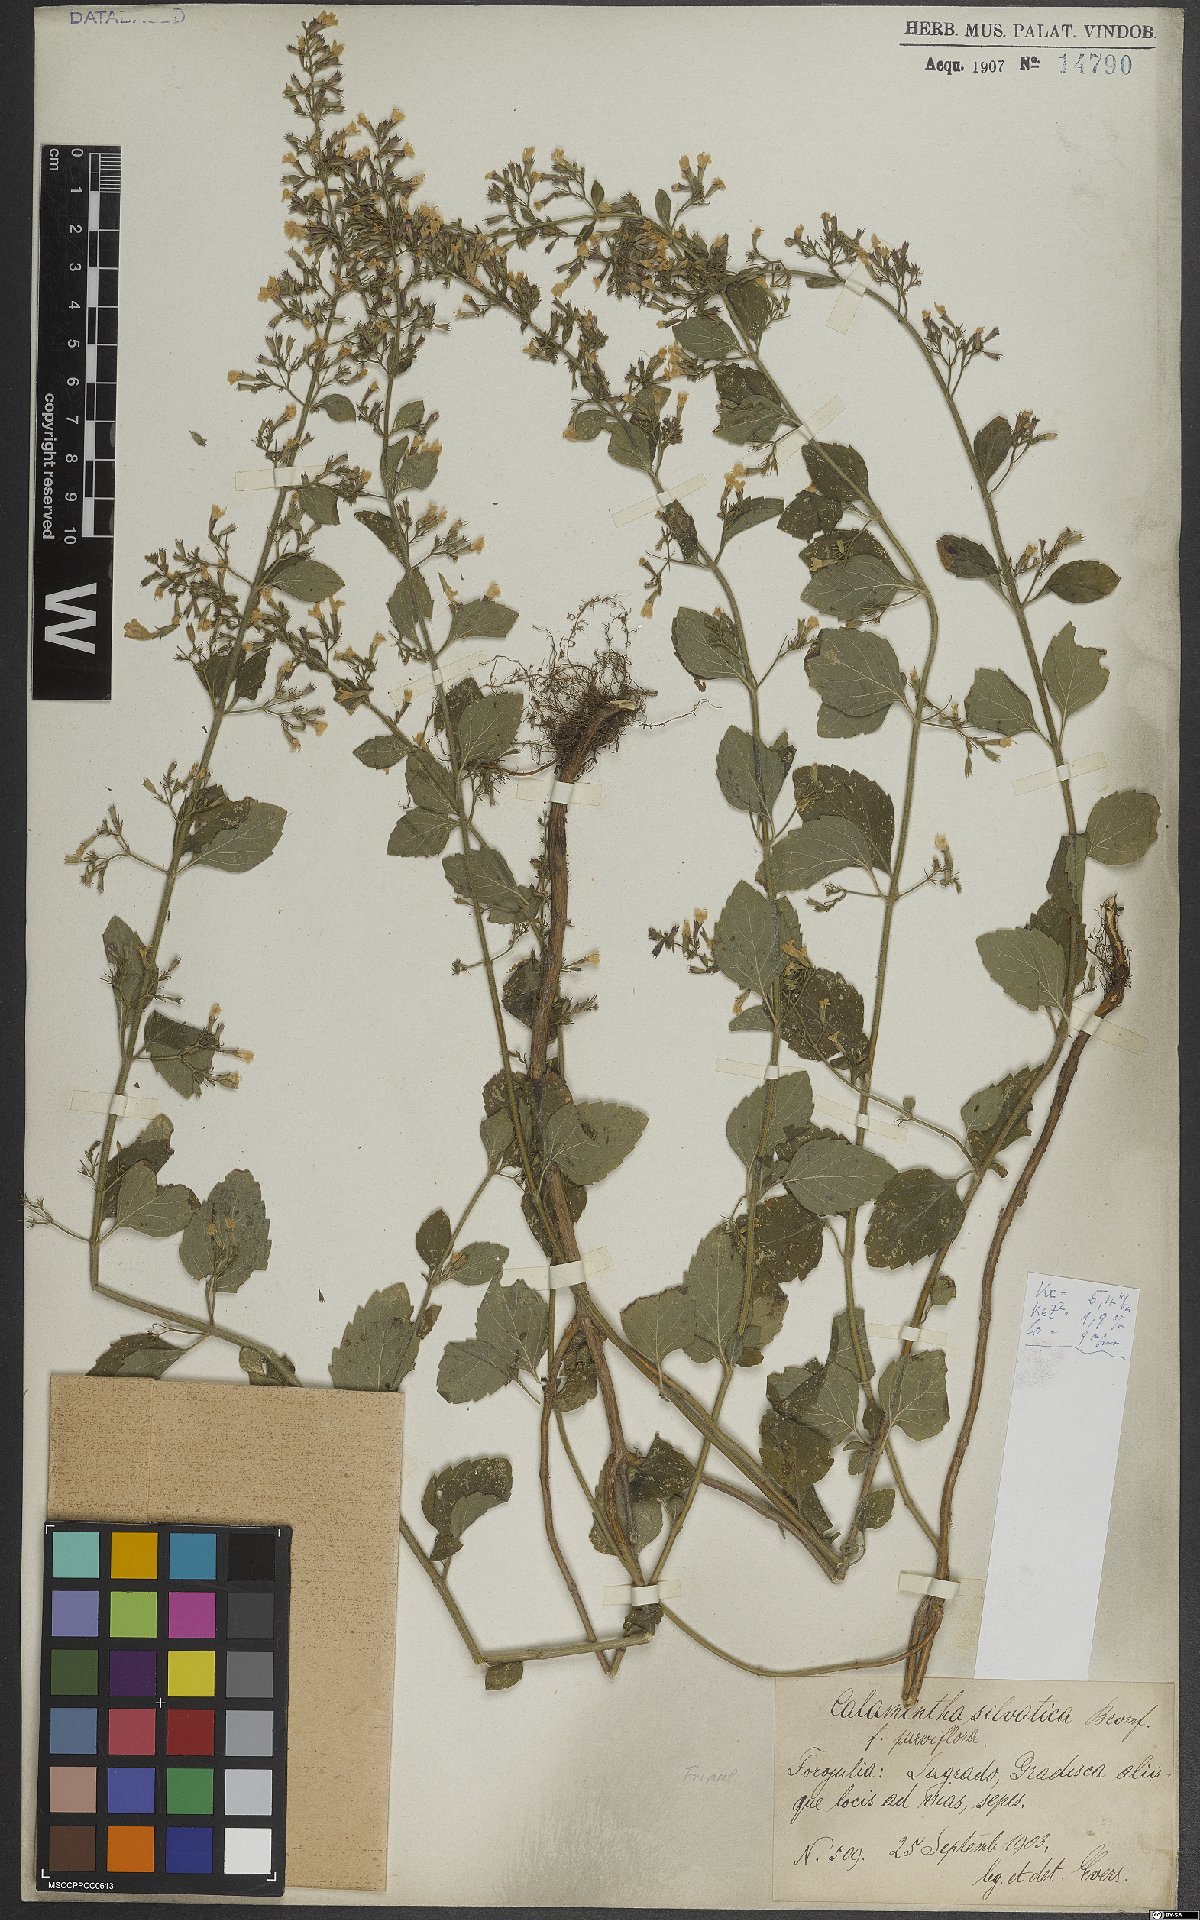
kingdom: Plantae
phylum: Tracheophyta
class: Magnoliopsida
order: Lamiales
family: Lamiaceae
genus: Clinopodium
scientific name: Clinopodium menthifolium
